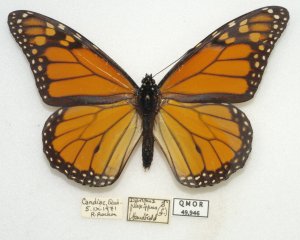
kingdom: Animalia
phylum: Arthropoda
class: Insecta
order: Lepidoptera
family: Nymphalidae
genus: Danaus
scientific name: Danaus plexippus
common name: Monarch
